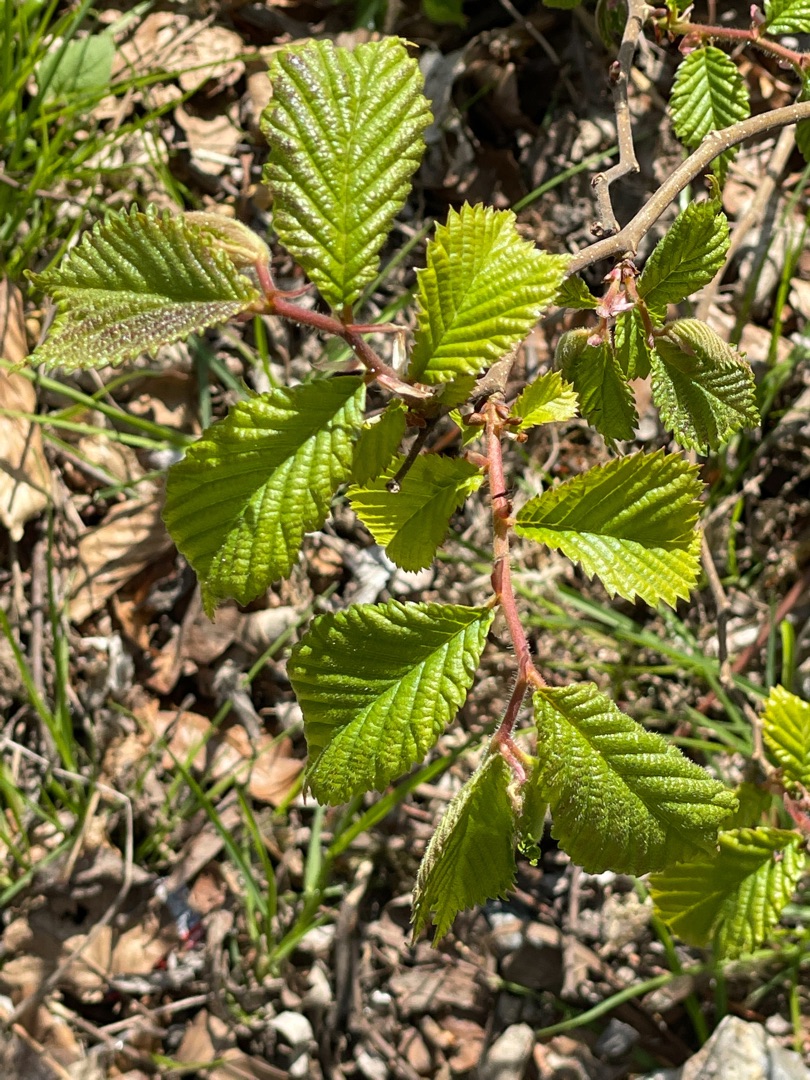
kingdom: Plantae
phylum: Tracheophyta
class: Magnoliopsida
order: Rosales
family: Ulmaceae
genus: Ulmus
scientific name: Ulmus glabra
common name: Skov-elm/storbladet elm
